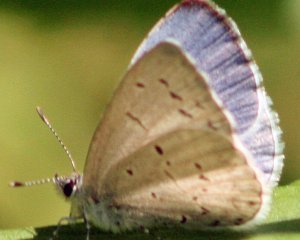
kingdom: Animalia
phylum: Arthropoda
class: Insecta
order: Lepidoptera
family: Lycaenidae
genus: Cyaniris
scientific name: Cyaniris neglecta
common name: Summer Azure
